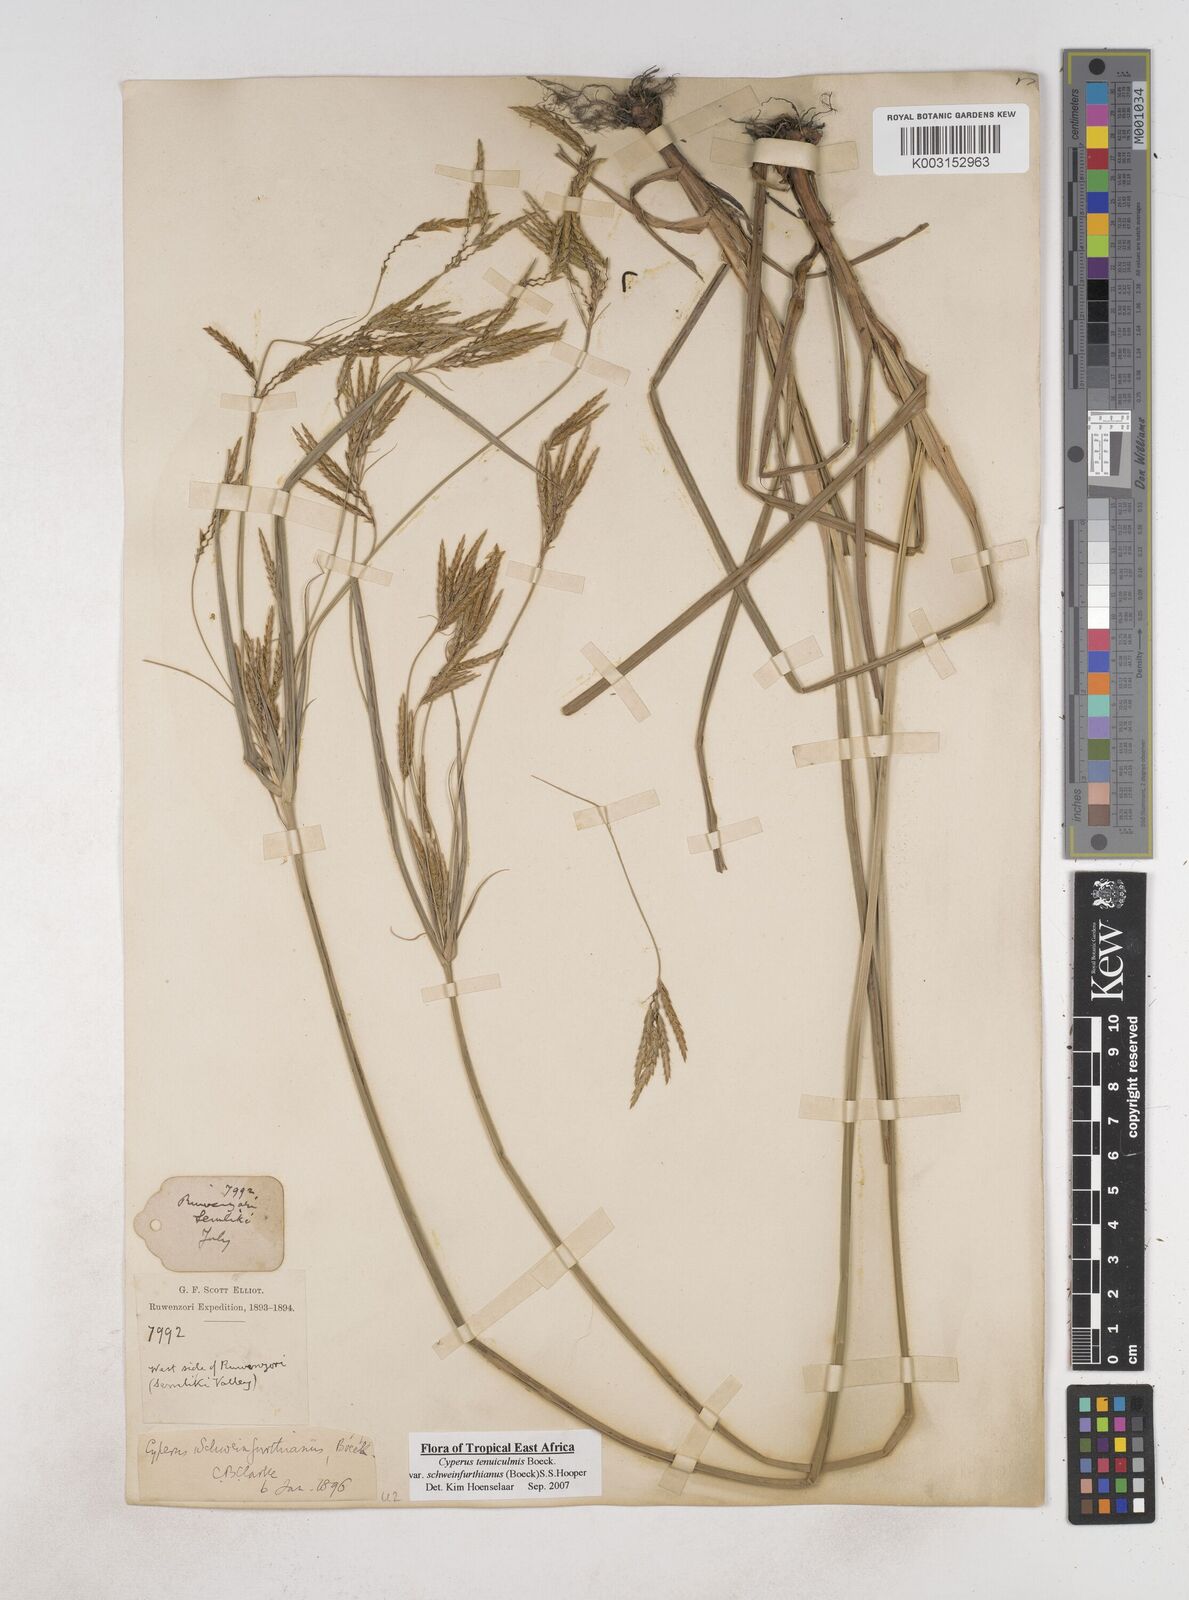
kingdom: Plantae
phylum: Tracheophyta
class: Liliopsida
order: Poales
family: Cyperaceae
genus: Cyperus
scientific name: Cyperus tenuiculmis
